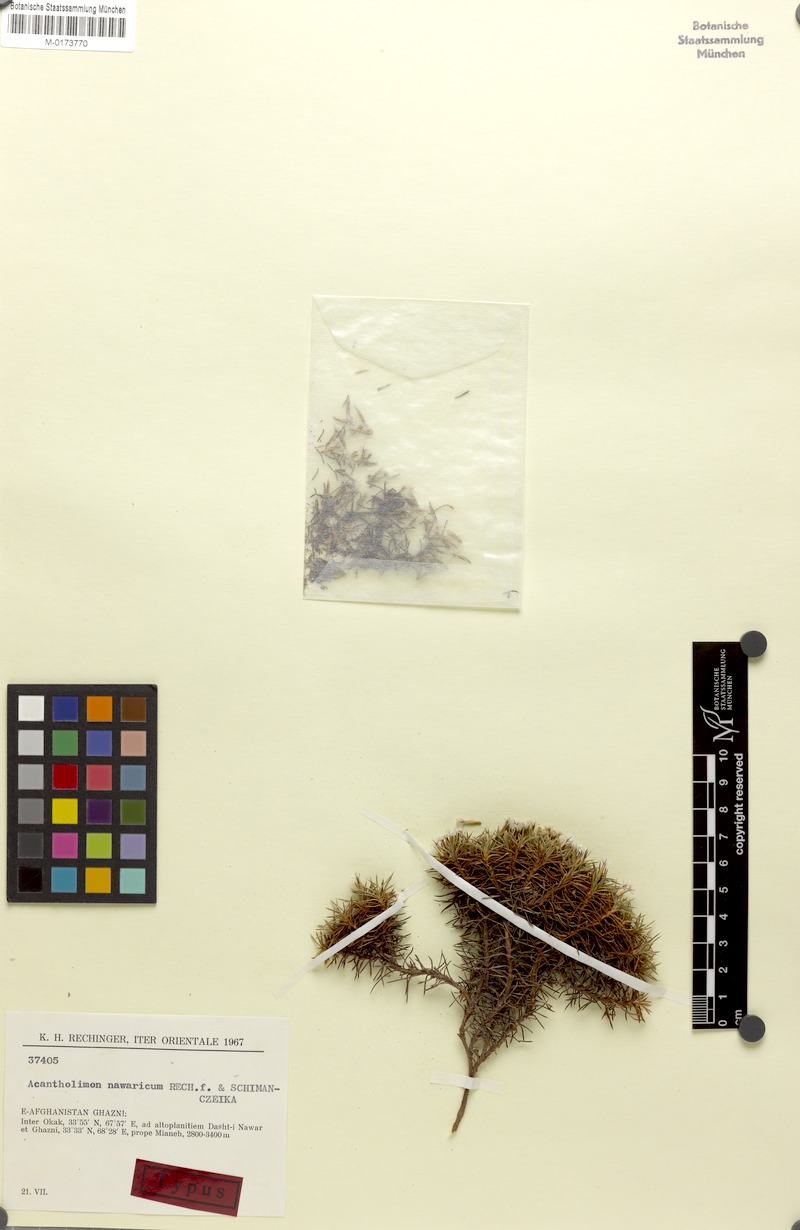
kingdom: Plantae
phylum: Tracheophyta
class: Magnoliopsida
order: Caryophyllales
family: Plumbaginaceae
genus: Acantholimon
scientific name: Acantholimon nawaricum
